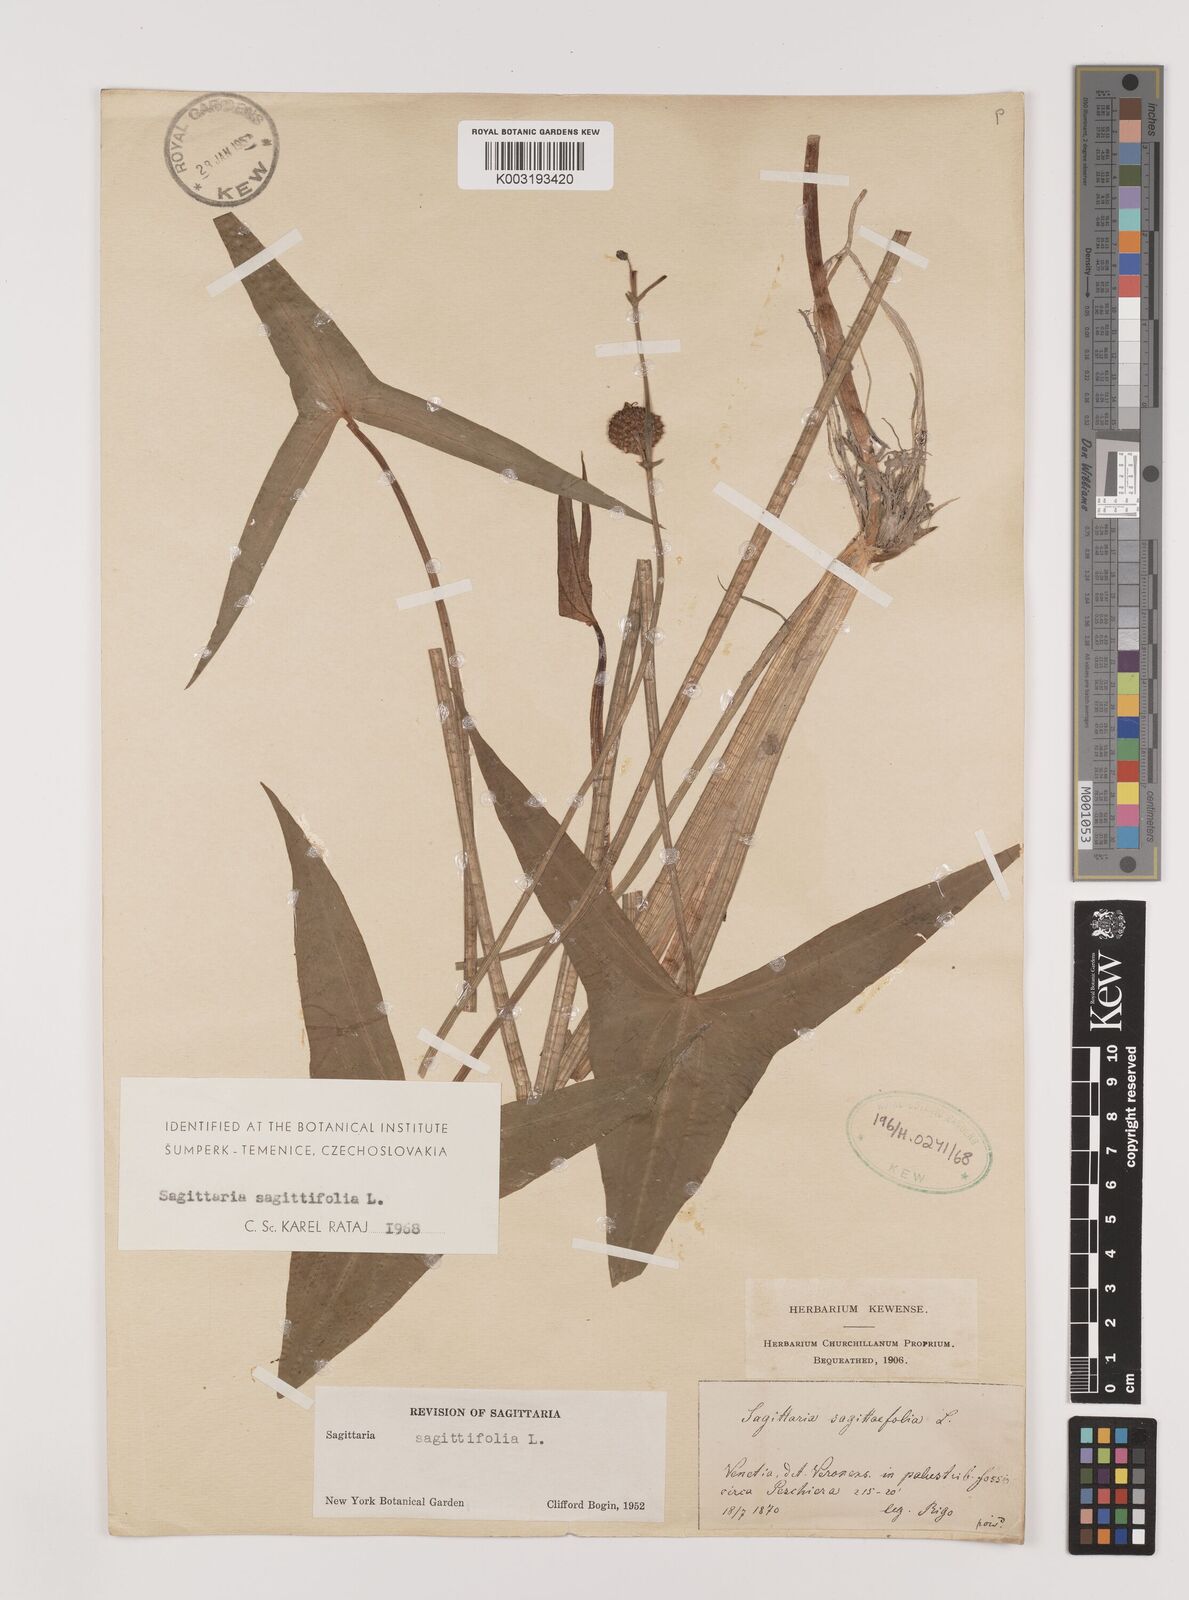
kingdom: Plantae
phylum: Tracheophyta
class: Liliopsida
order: Alismatales
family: Alismataceae
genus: Sagittaria
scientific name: Sagittaria sagittifolia
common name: Arrowhead
